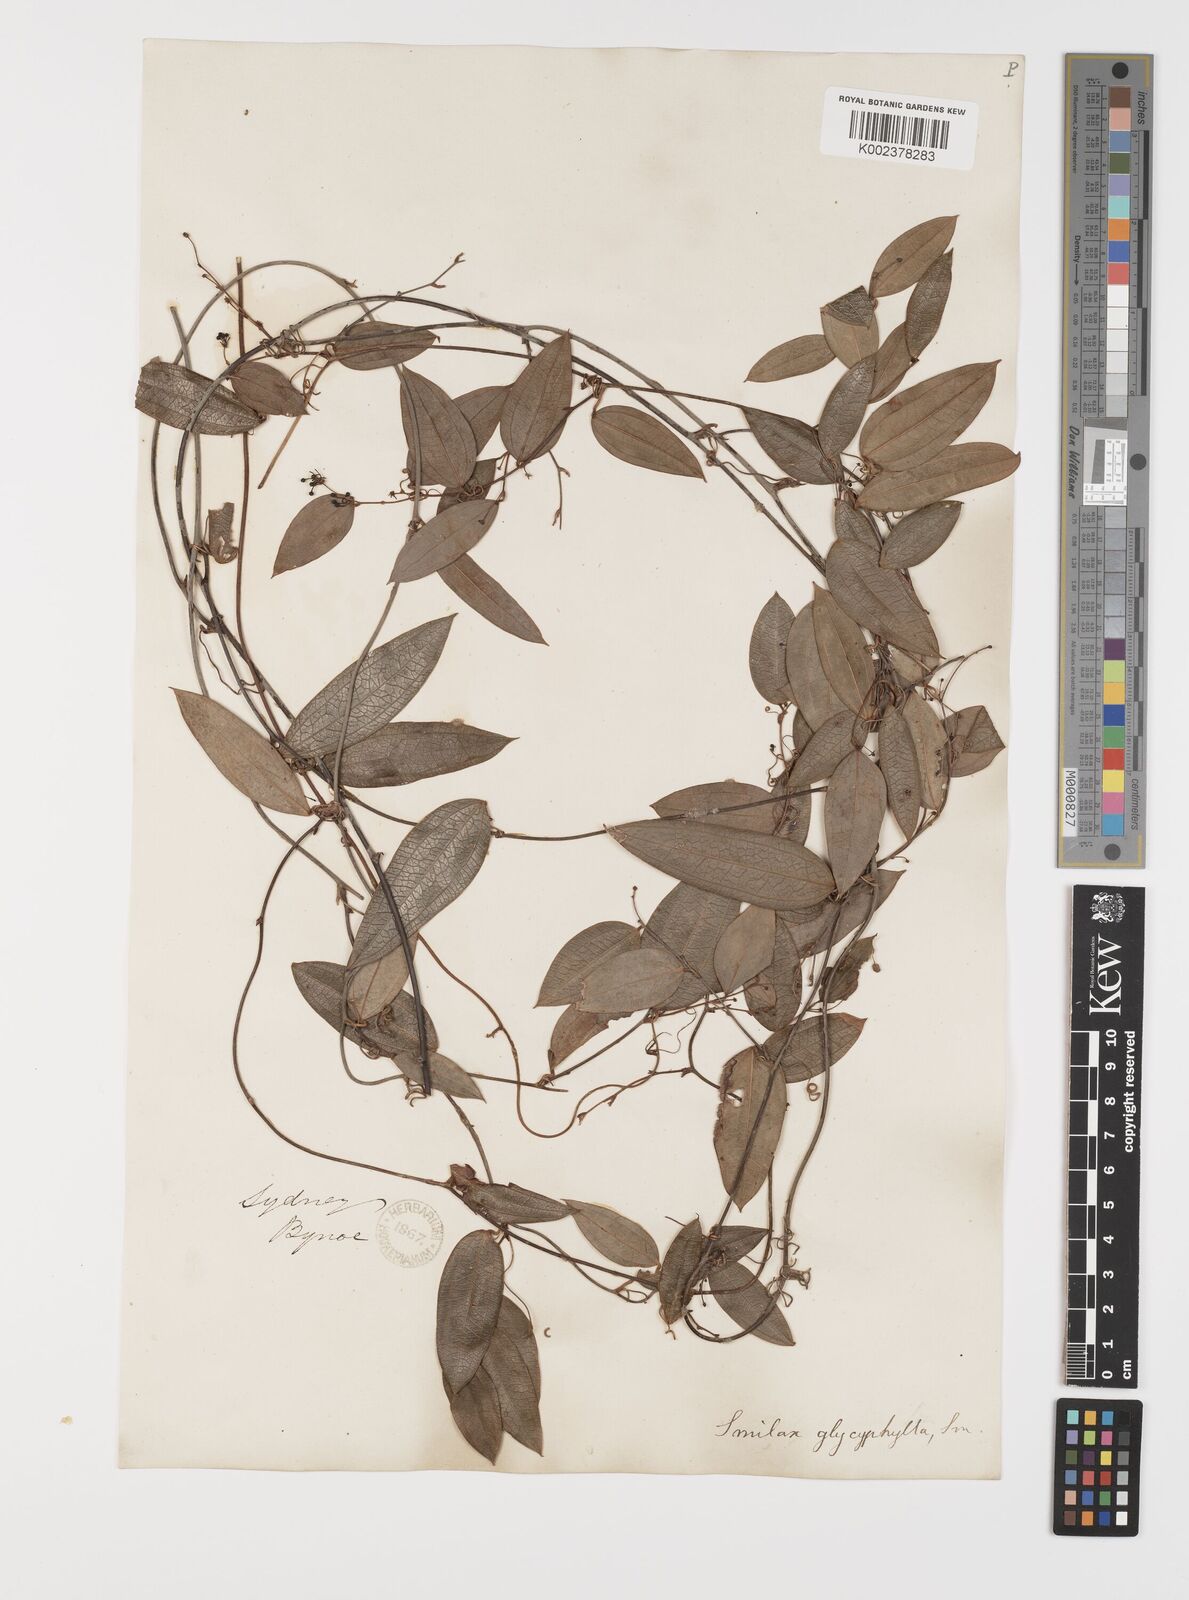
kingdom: Plantae
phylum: Tracheophyta
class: Liliopsida
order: Liliales
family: Smilacaceae
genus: Smilax
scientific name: Smilax leucophylla
